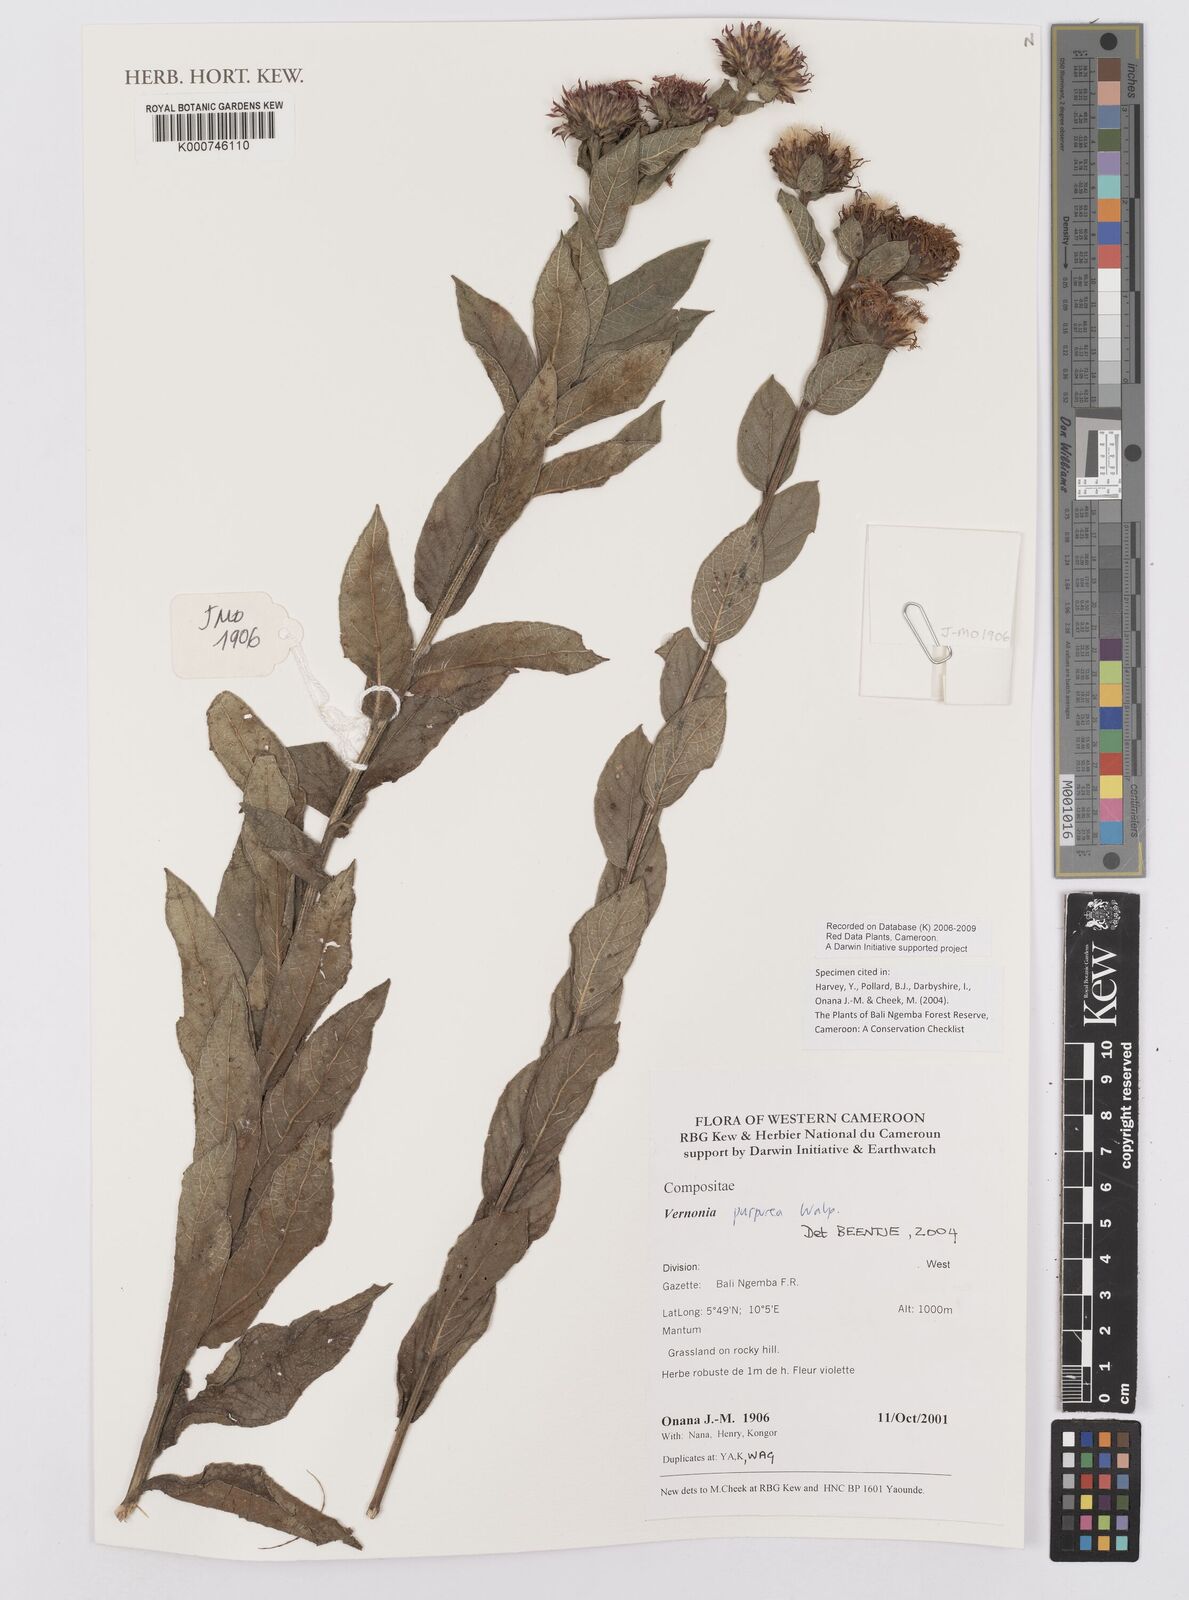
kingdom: Plantae
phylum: Tracheophyta
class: Magnoliopsida
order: Asterales
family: Asteraceae
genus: Vernonia
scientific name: Vernonia
